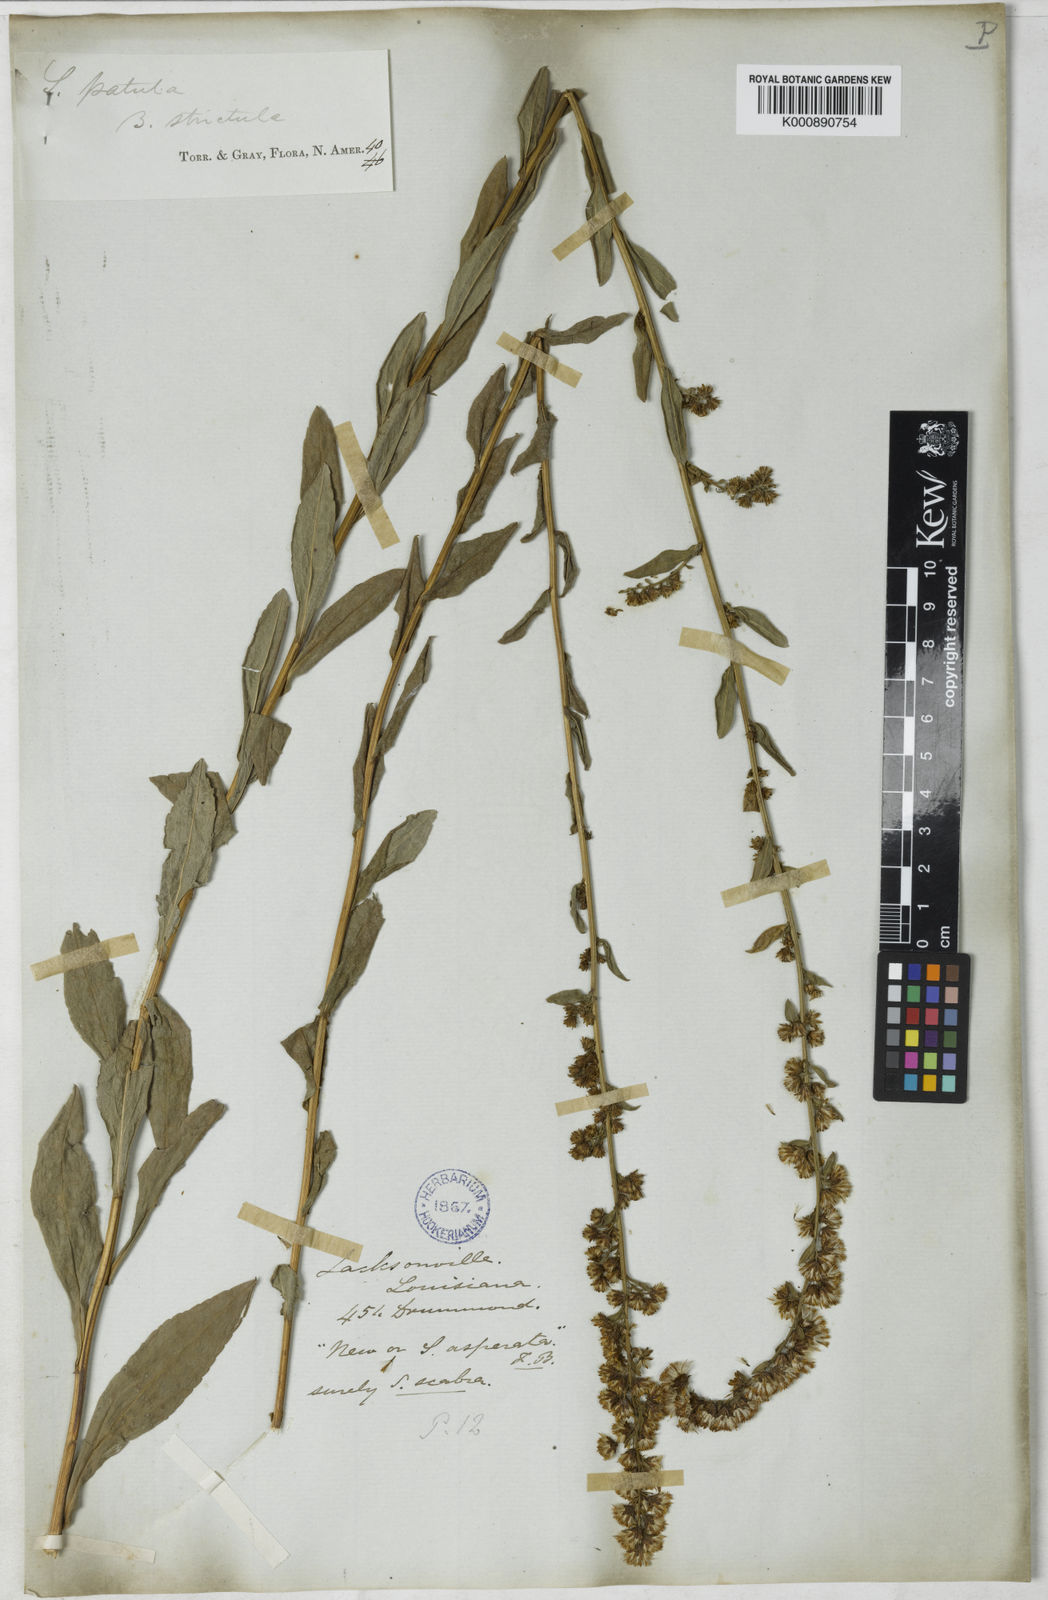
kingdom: Plantae
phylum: Tracheophyta
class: Magnoliopsida
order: Asterales
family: Asteraceae
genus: Solidago
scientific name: Solidago salicina
